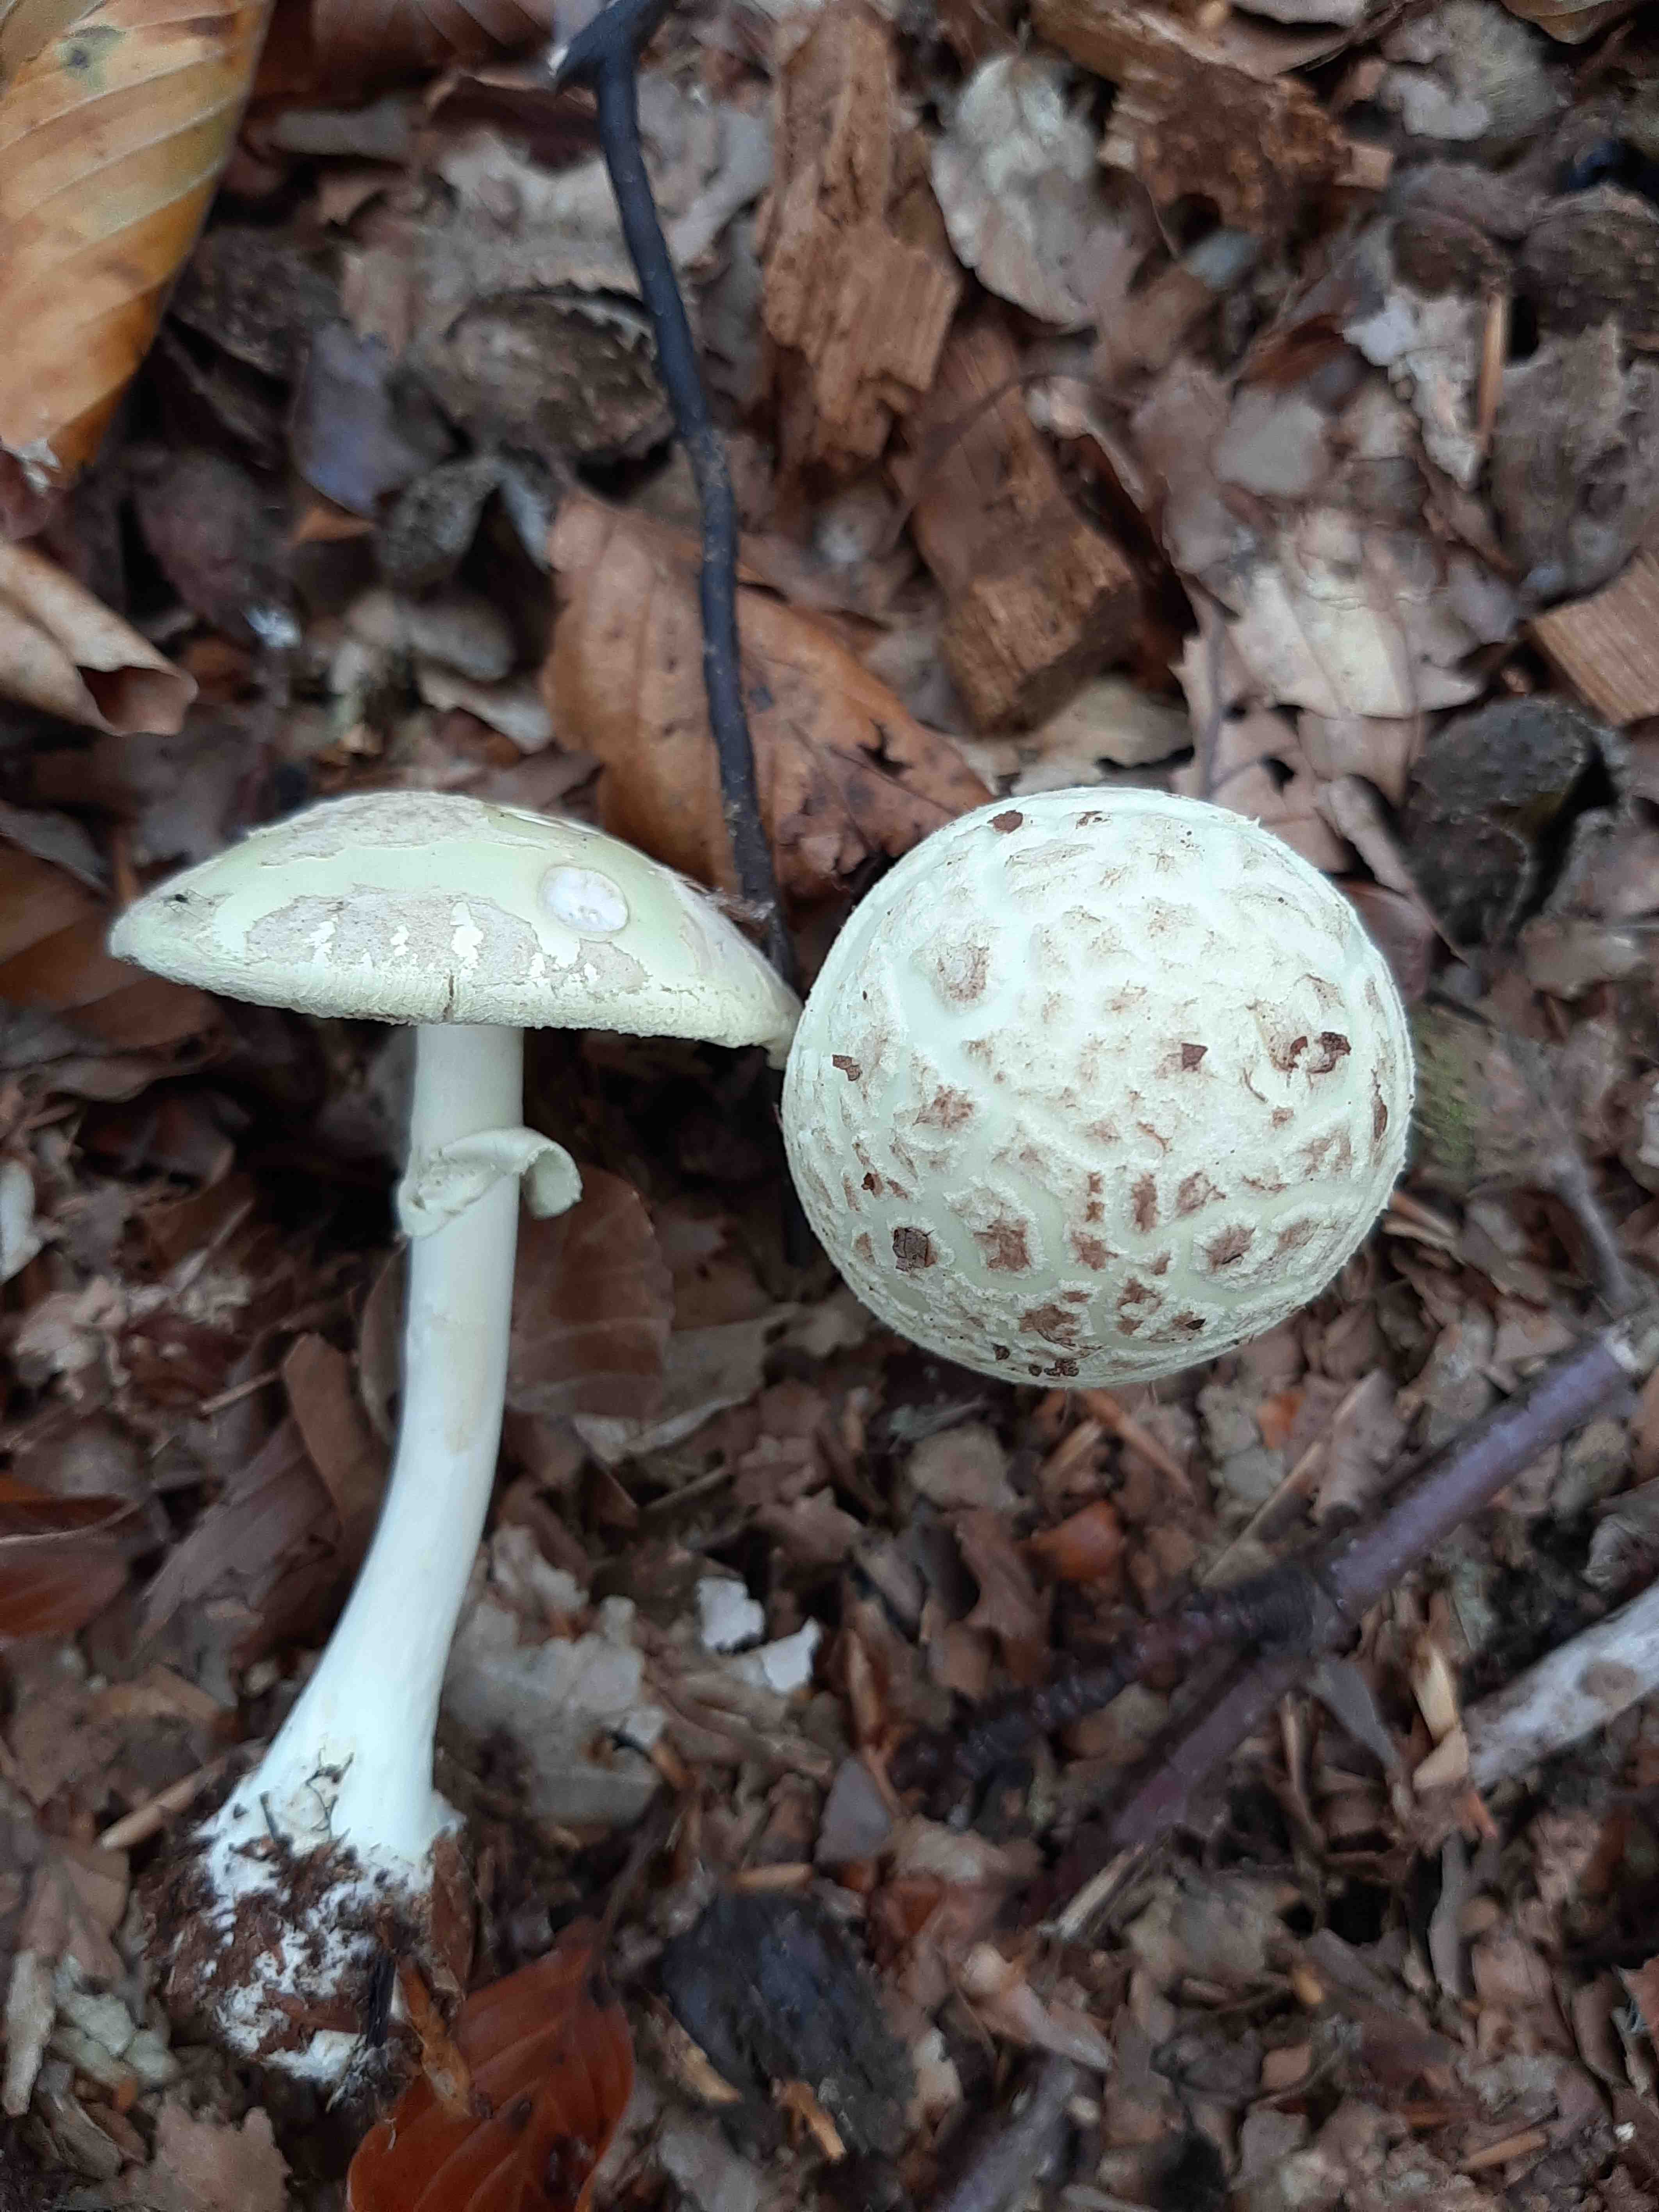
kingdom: Fungi
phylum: Basidiomycota
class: Agaricomycetes
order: Agaricales
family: Amanitaceae
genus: Amanita
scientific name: Amanita citrina
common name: kugleknoldet fluesvamp
